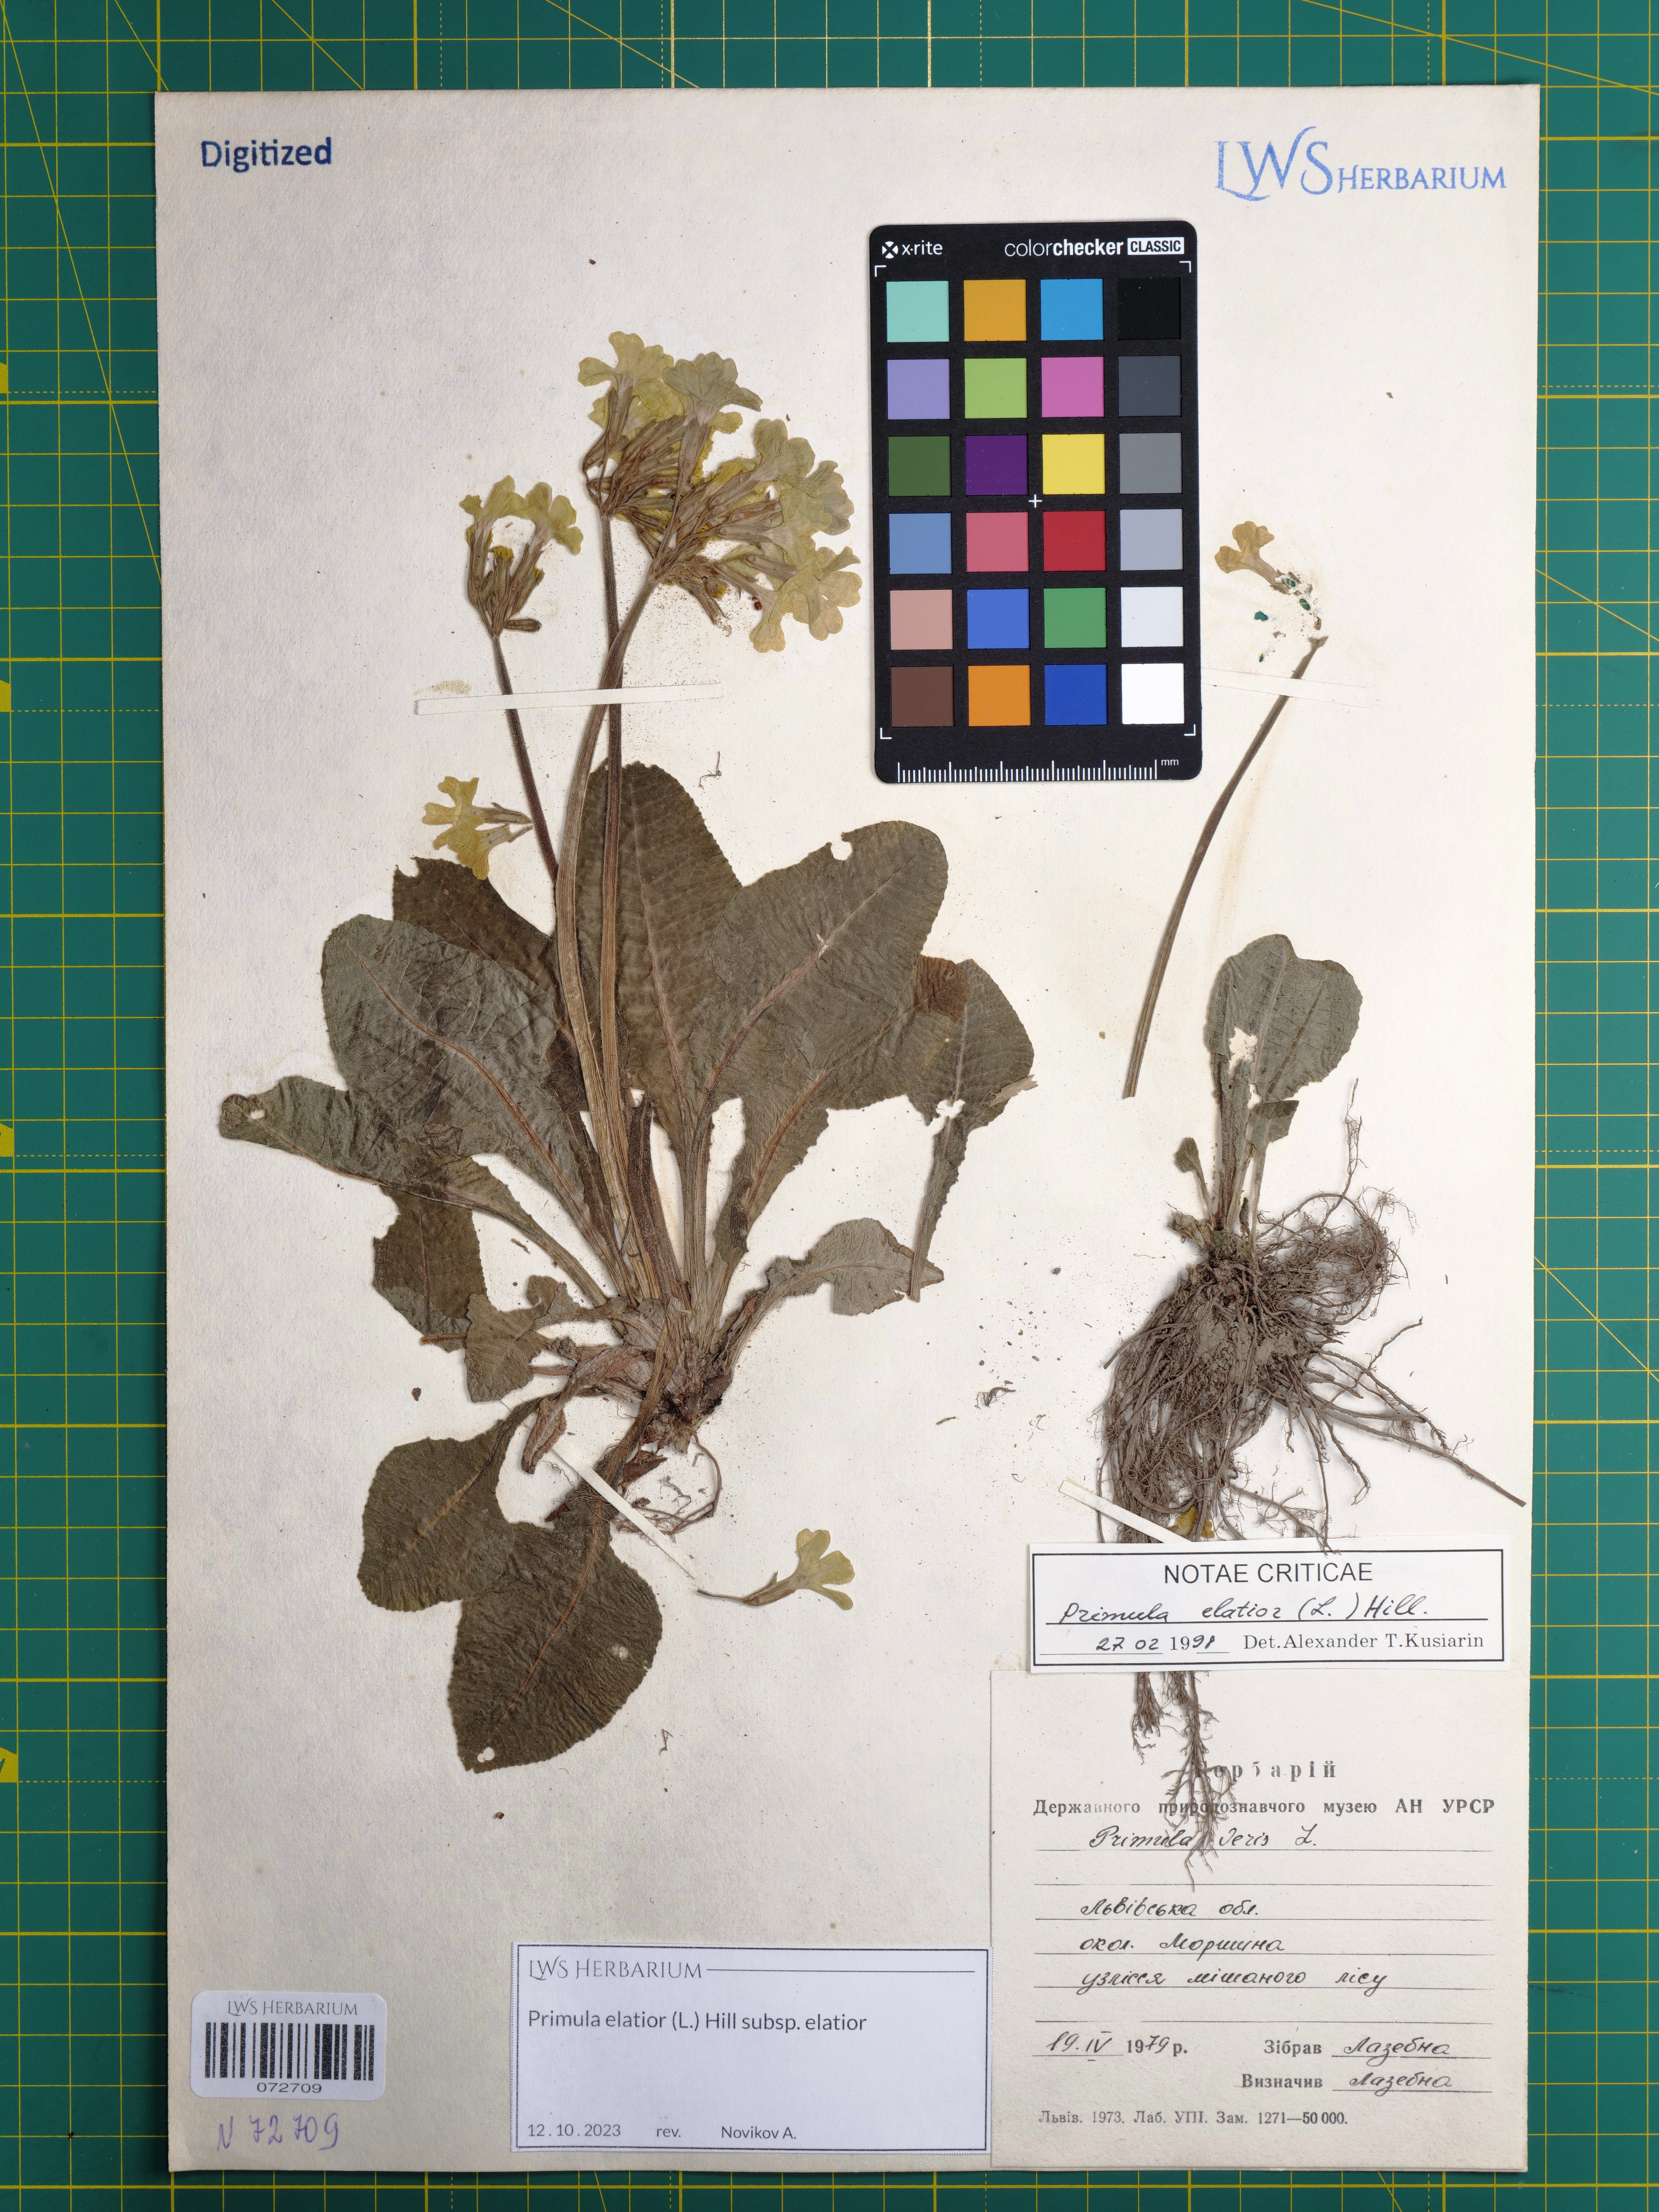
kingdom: Plantae
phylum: Tracheophyta
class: Magnoliopsida
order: Ericales
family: Primulaceae
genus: Primula
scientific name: Primula elatior
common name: Oxlip
